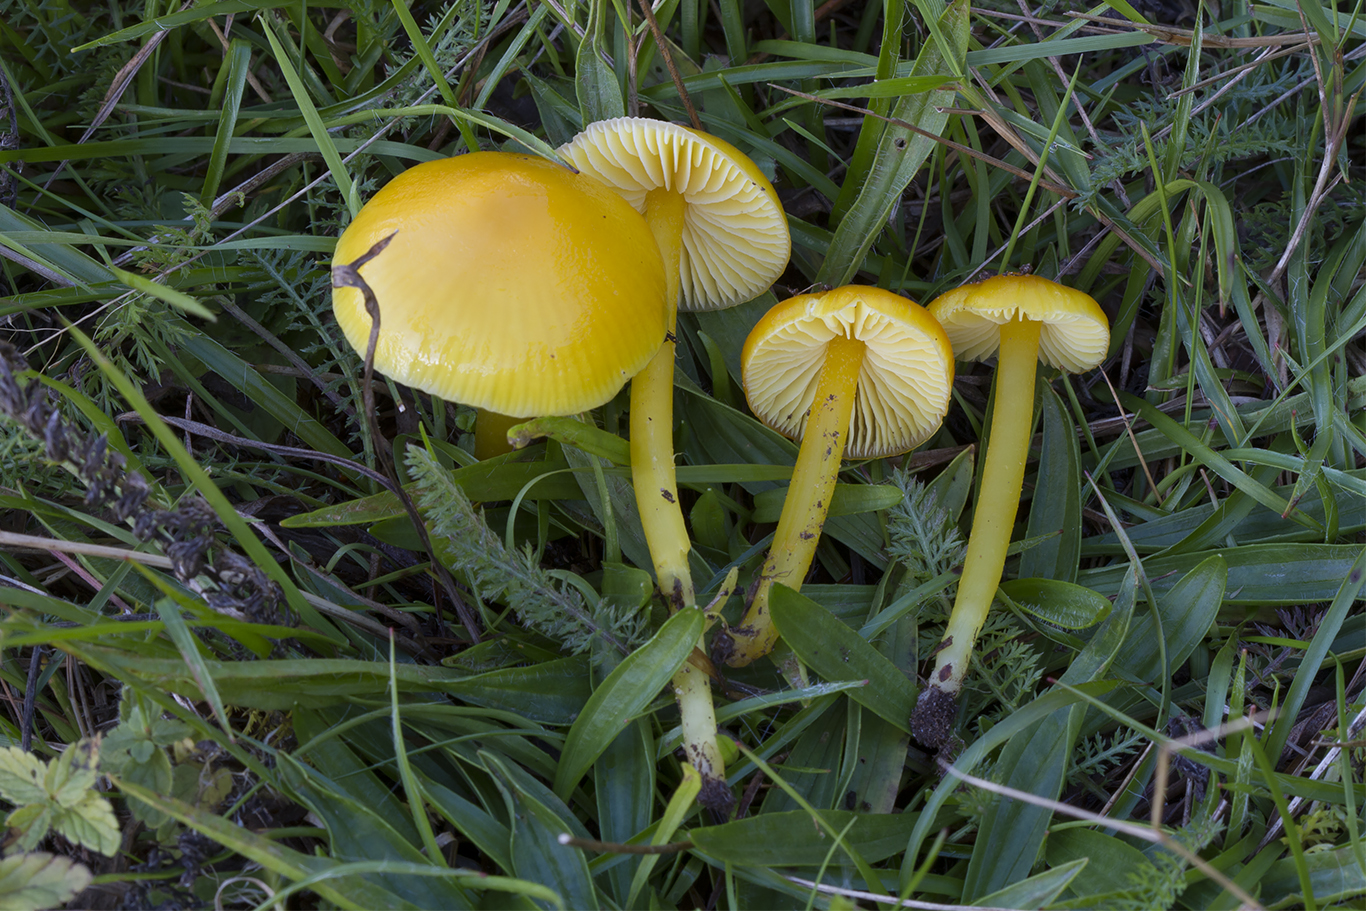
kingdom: Fungi
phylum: Basidiomycota
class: Agaricomycetes
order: Agaricales
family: Hygrophoraceae
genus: Hygrocybe
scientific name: Hygrocybe chlorophana
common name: gul vokshat
